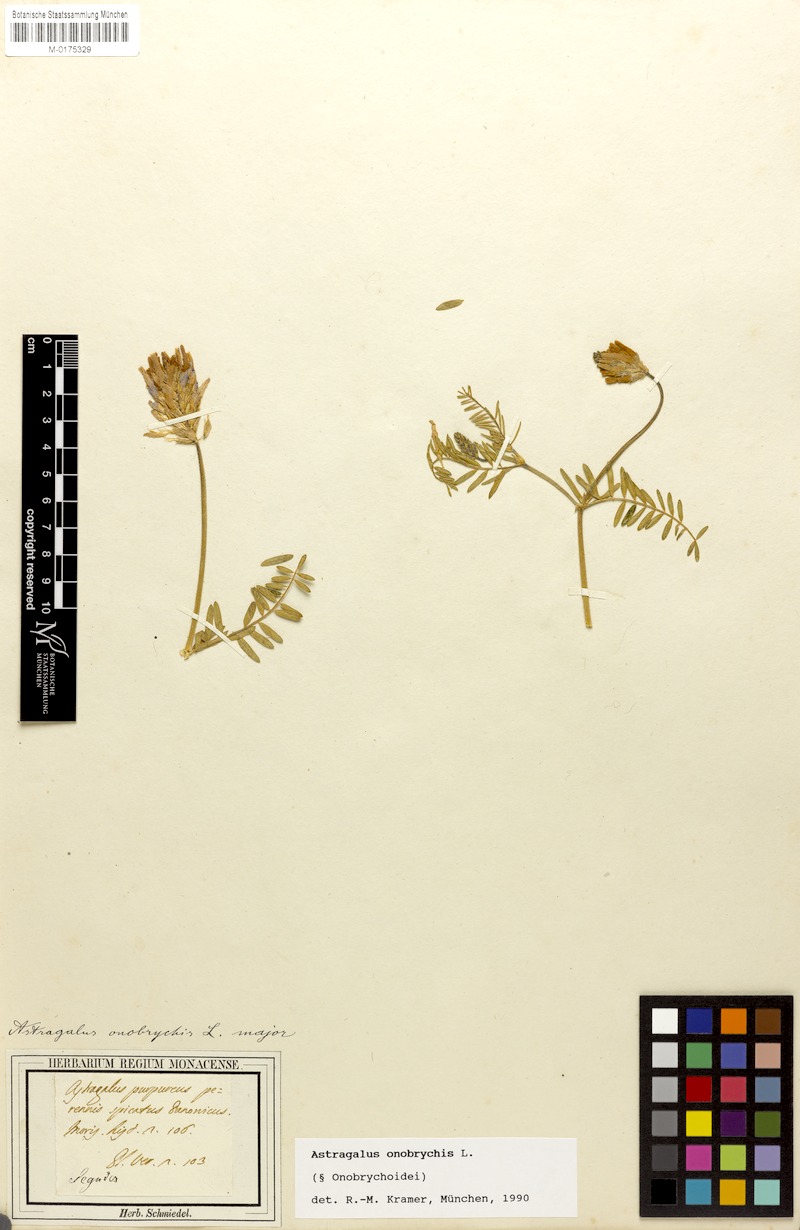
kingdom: Plantae
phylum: Tracheophyta
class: Magnoliopsida
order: Fabales
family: Fabaceae
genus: Astragalus
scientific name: Astragalus onobrychis
